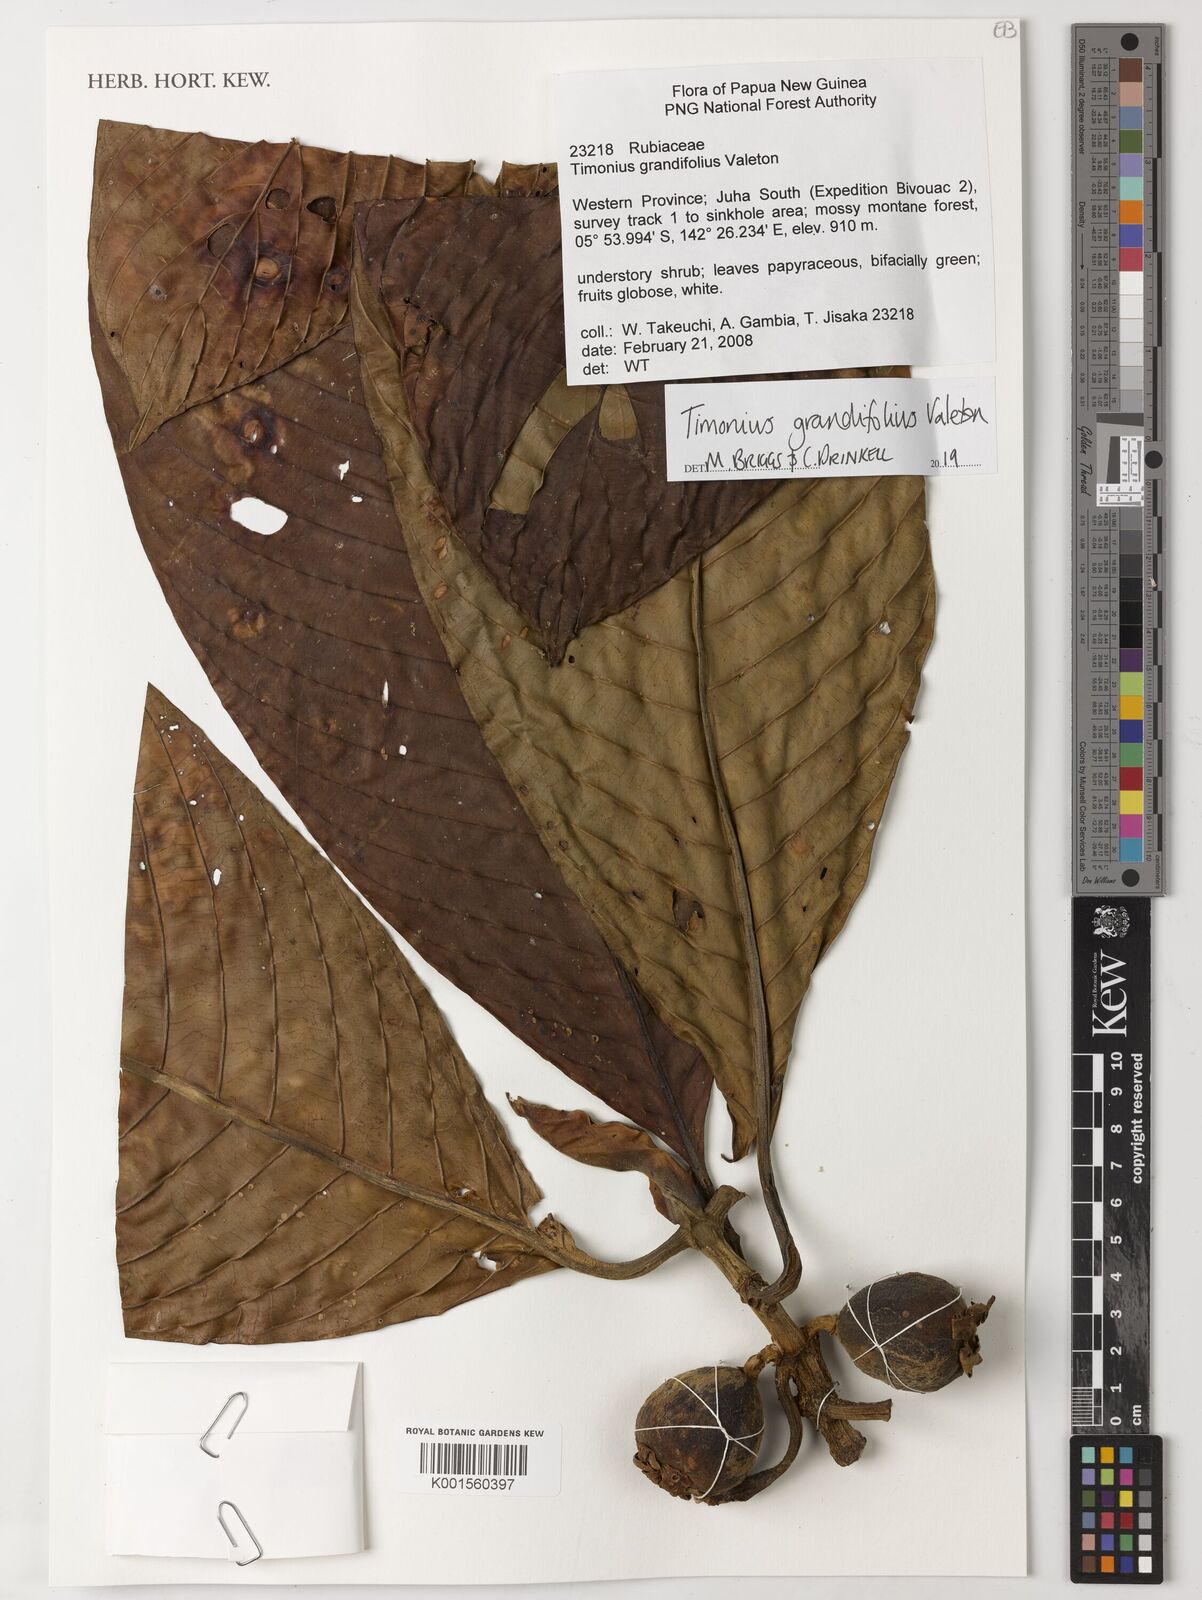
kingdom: Plantae
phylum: Tracheophyta
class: Magnoliopsida
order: Gentianales
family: Rubiaceae
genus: Timonius
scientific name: Timonius grandifolius
